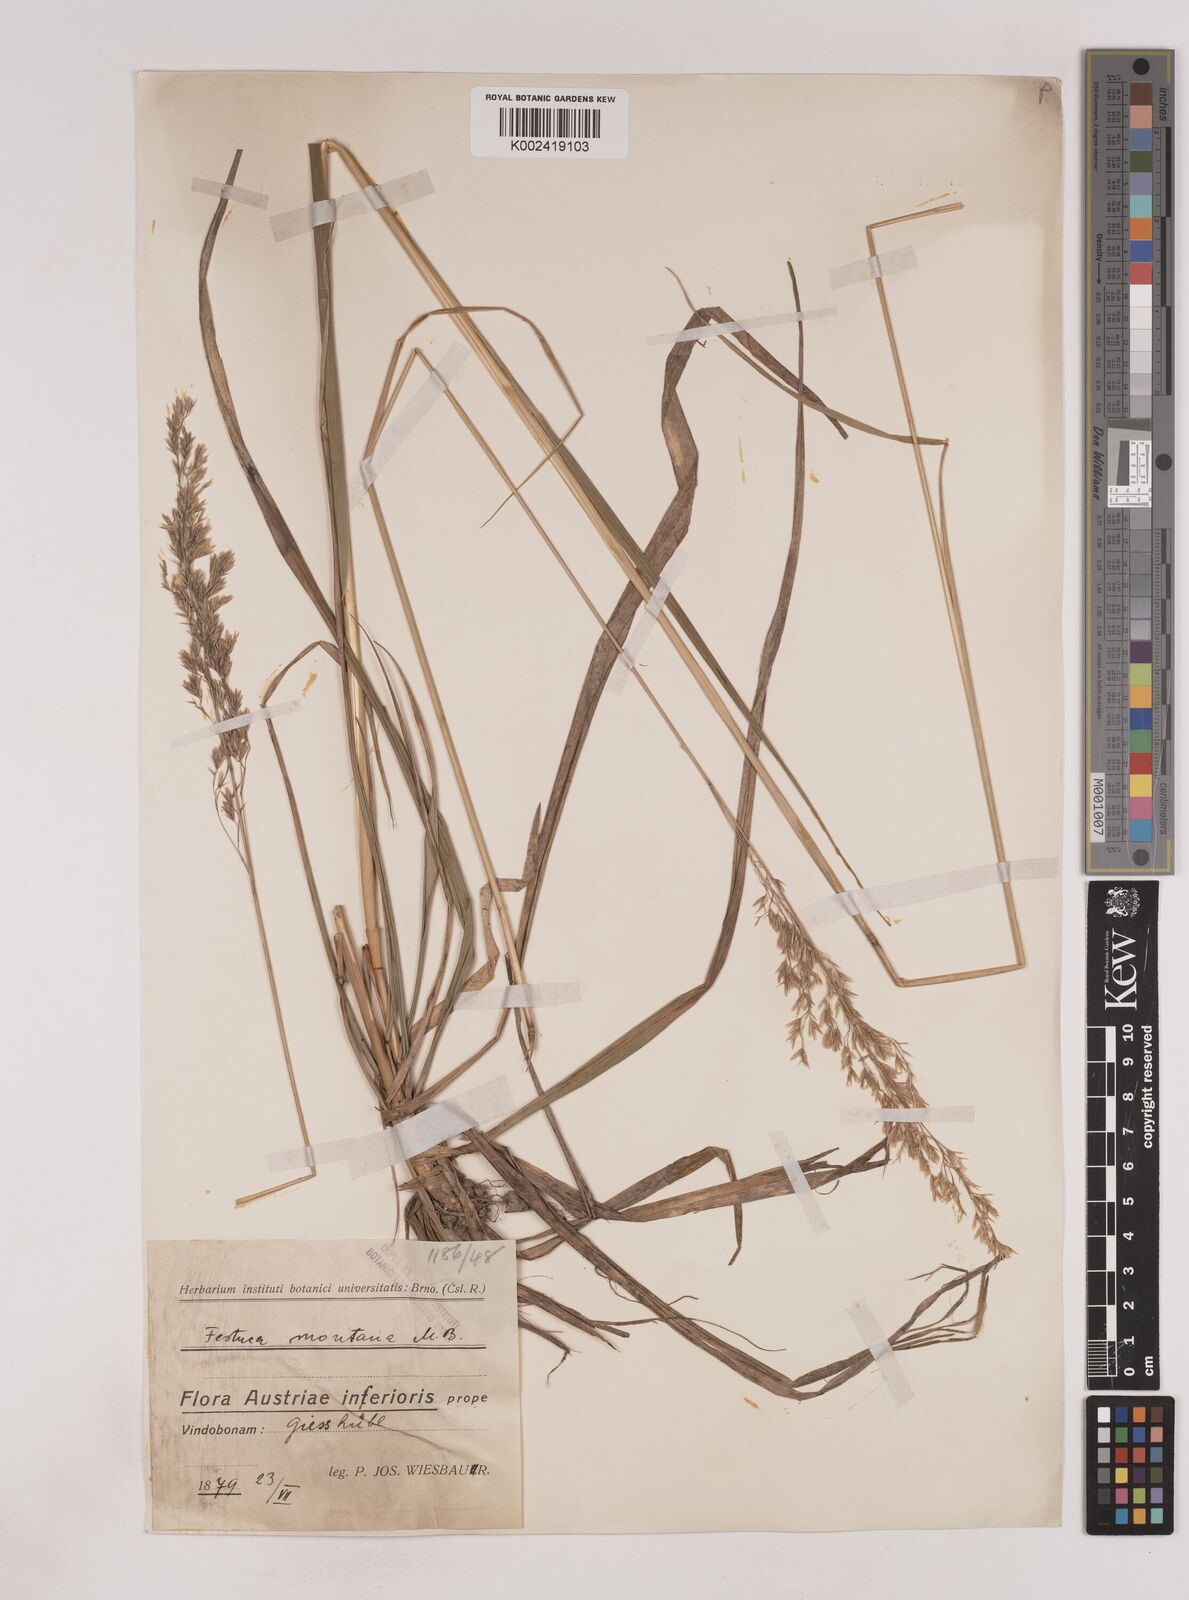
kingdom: Plantae
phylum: Tracheophyta
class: Liliopsida
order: Poales
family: Poaceae
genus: Festuca
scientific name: Festuca drymeja
